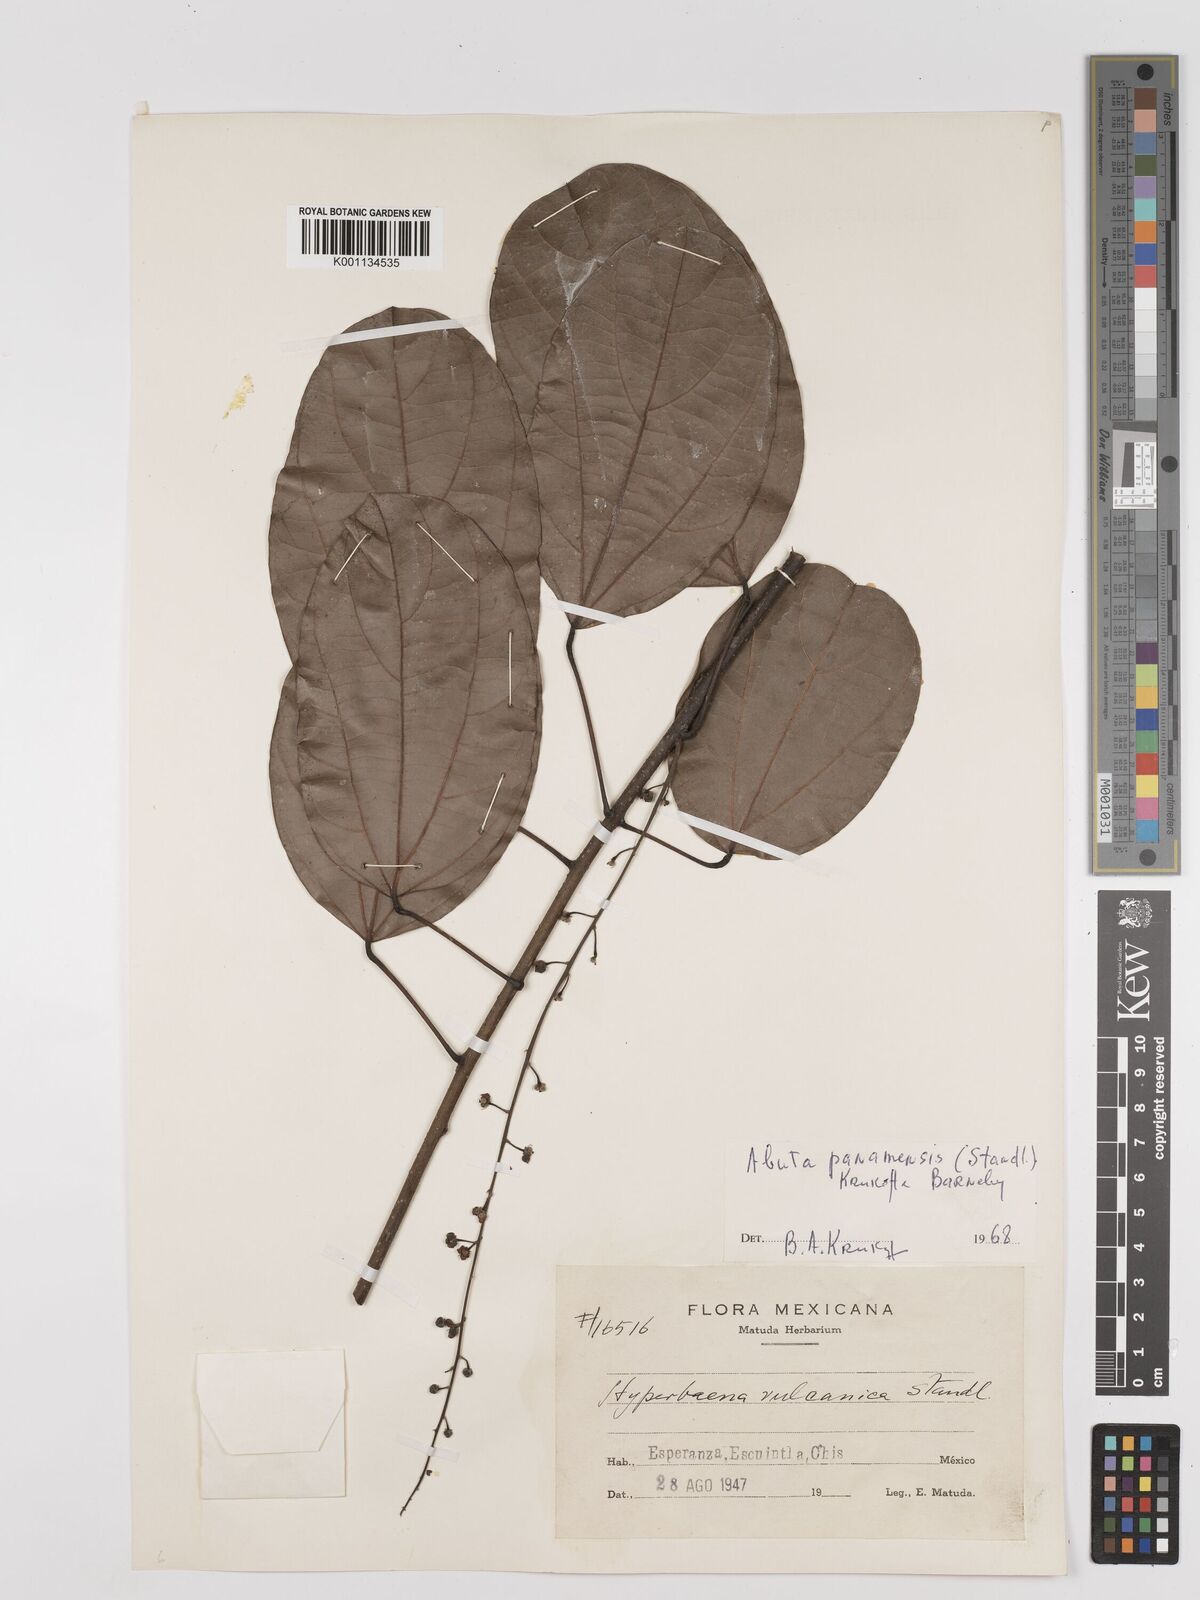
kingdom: Plantae
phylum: Tracheophyta
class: Magnoliopsida
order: Ranunculales
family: Menispermaceae
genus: Abuta
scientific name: Abuta panamensis
